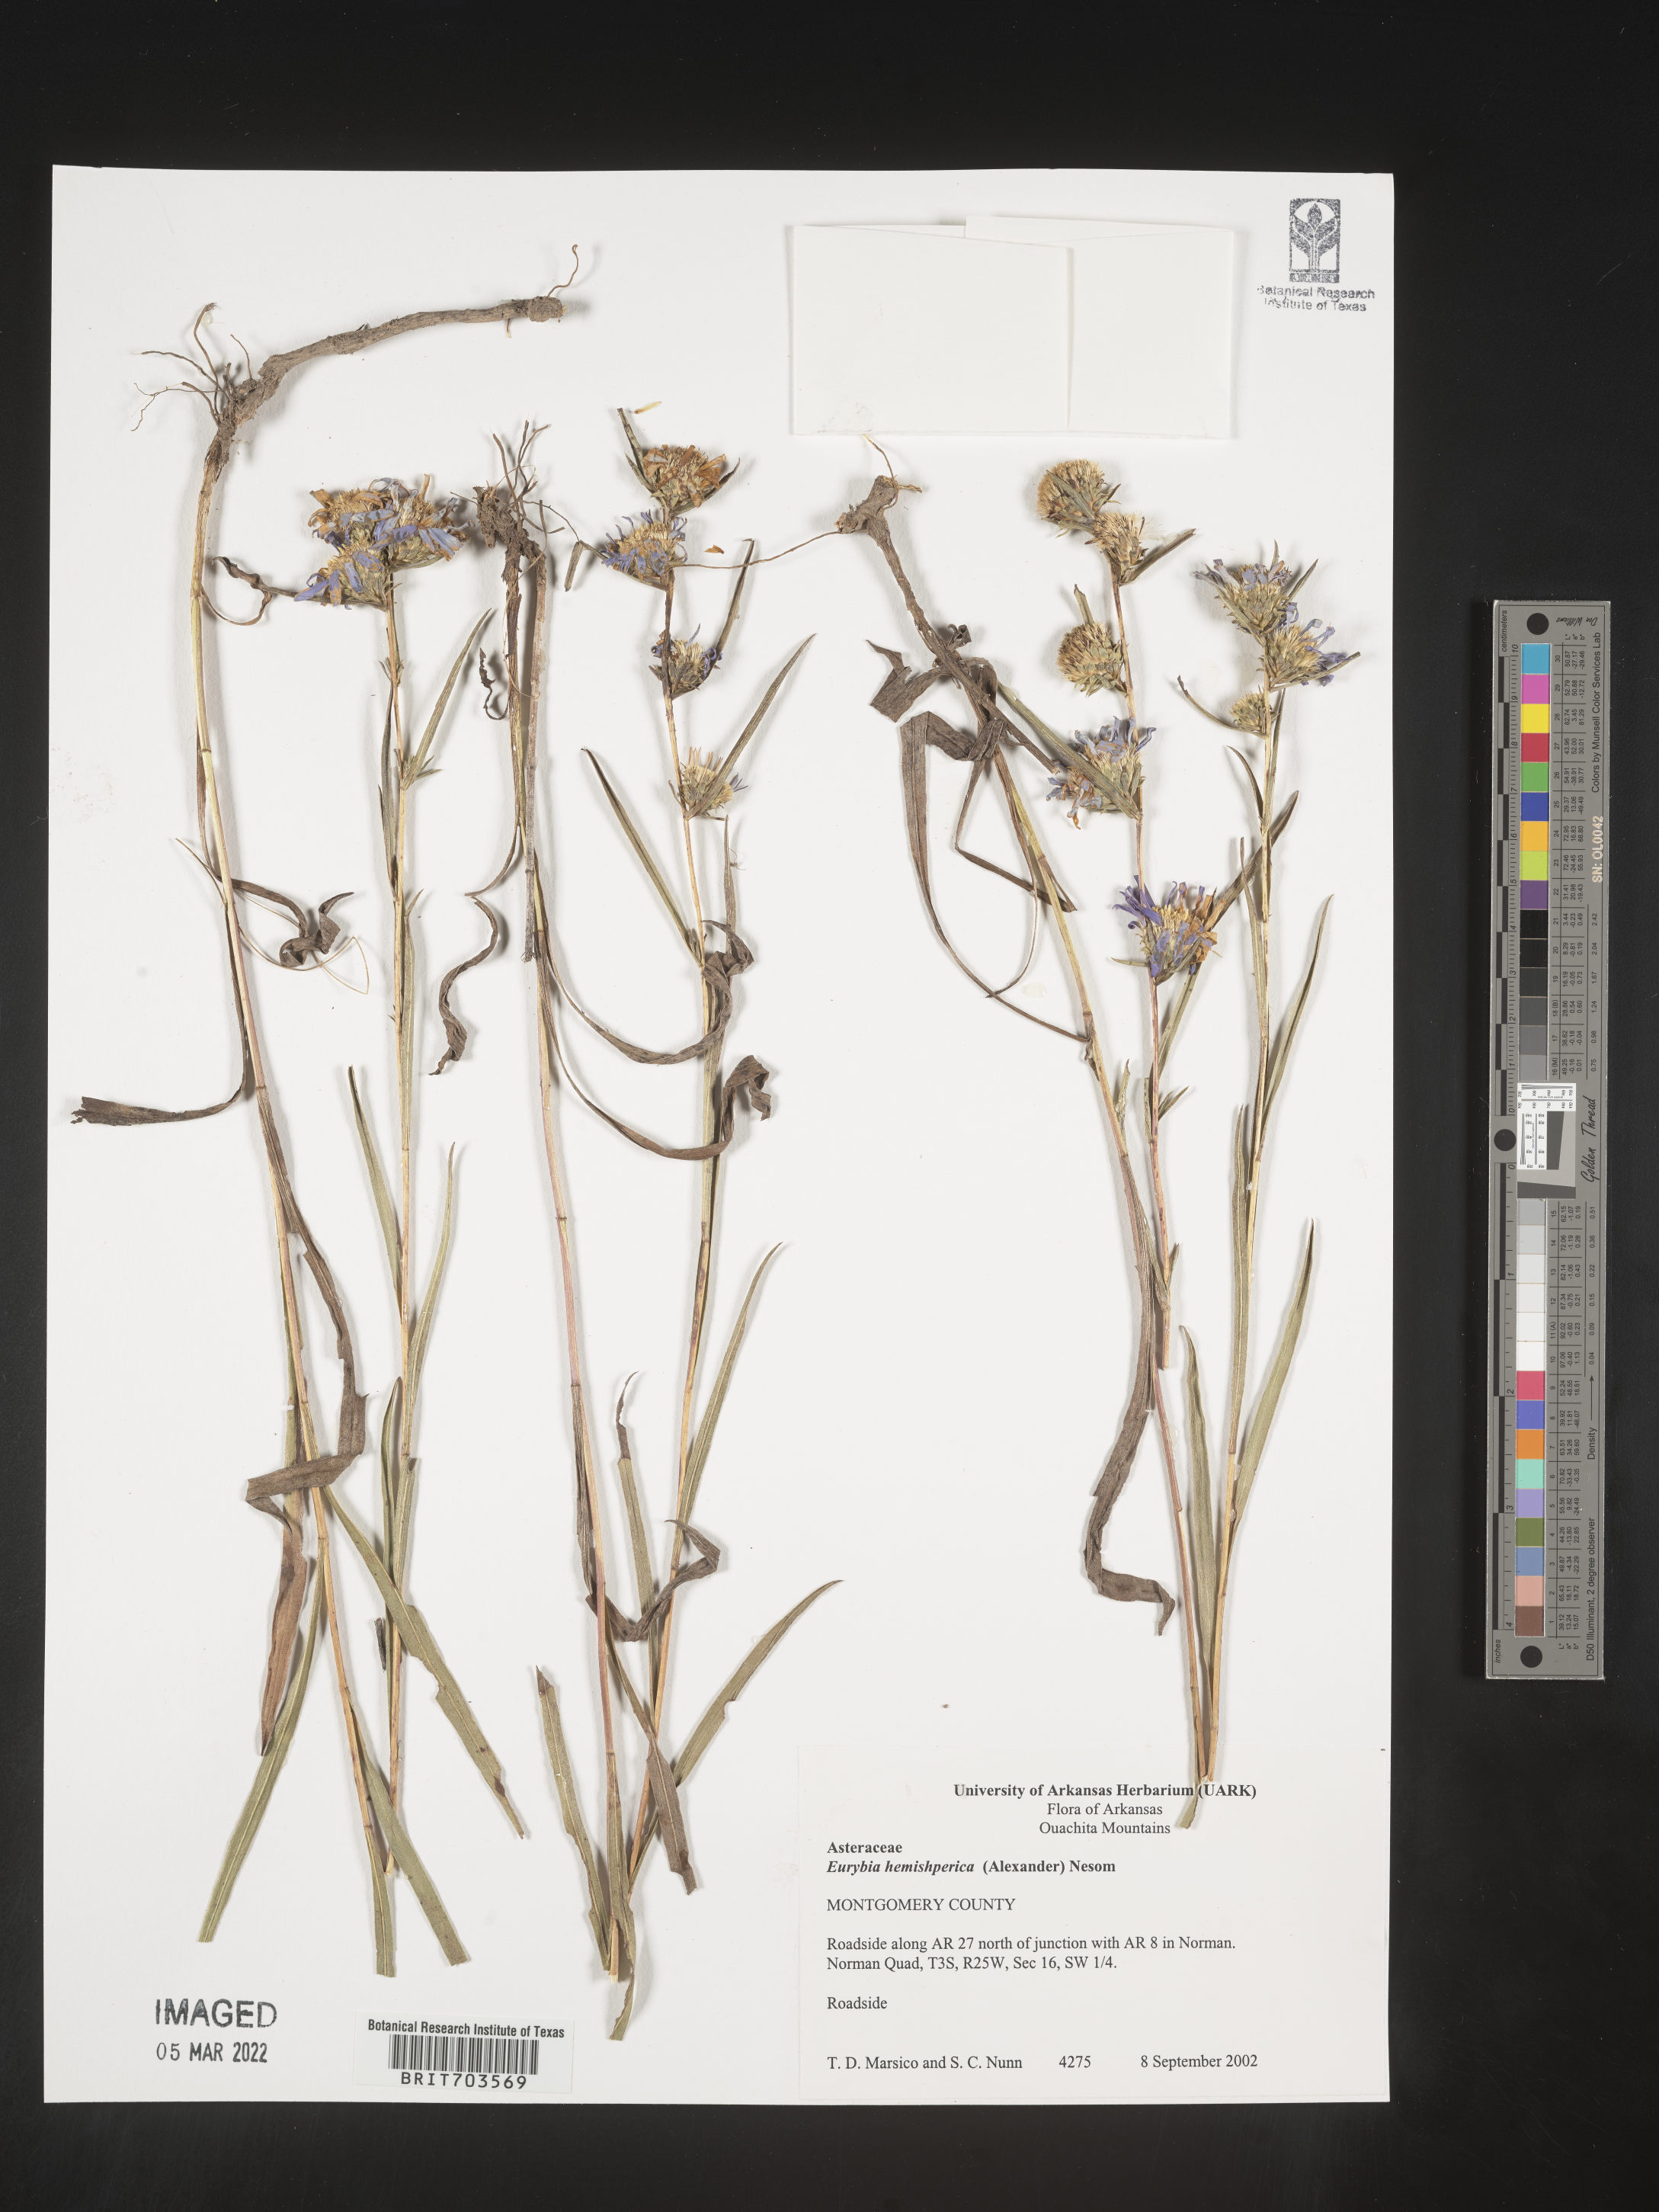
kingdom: Plantae
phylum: Tracheophyta
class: Magnoliopsida
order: Asterales
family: Asteraceae
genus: Eurybia
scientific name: Eurybia hemispherica
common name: Showy aster
